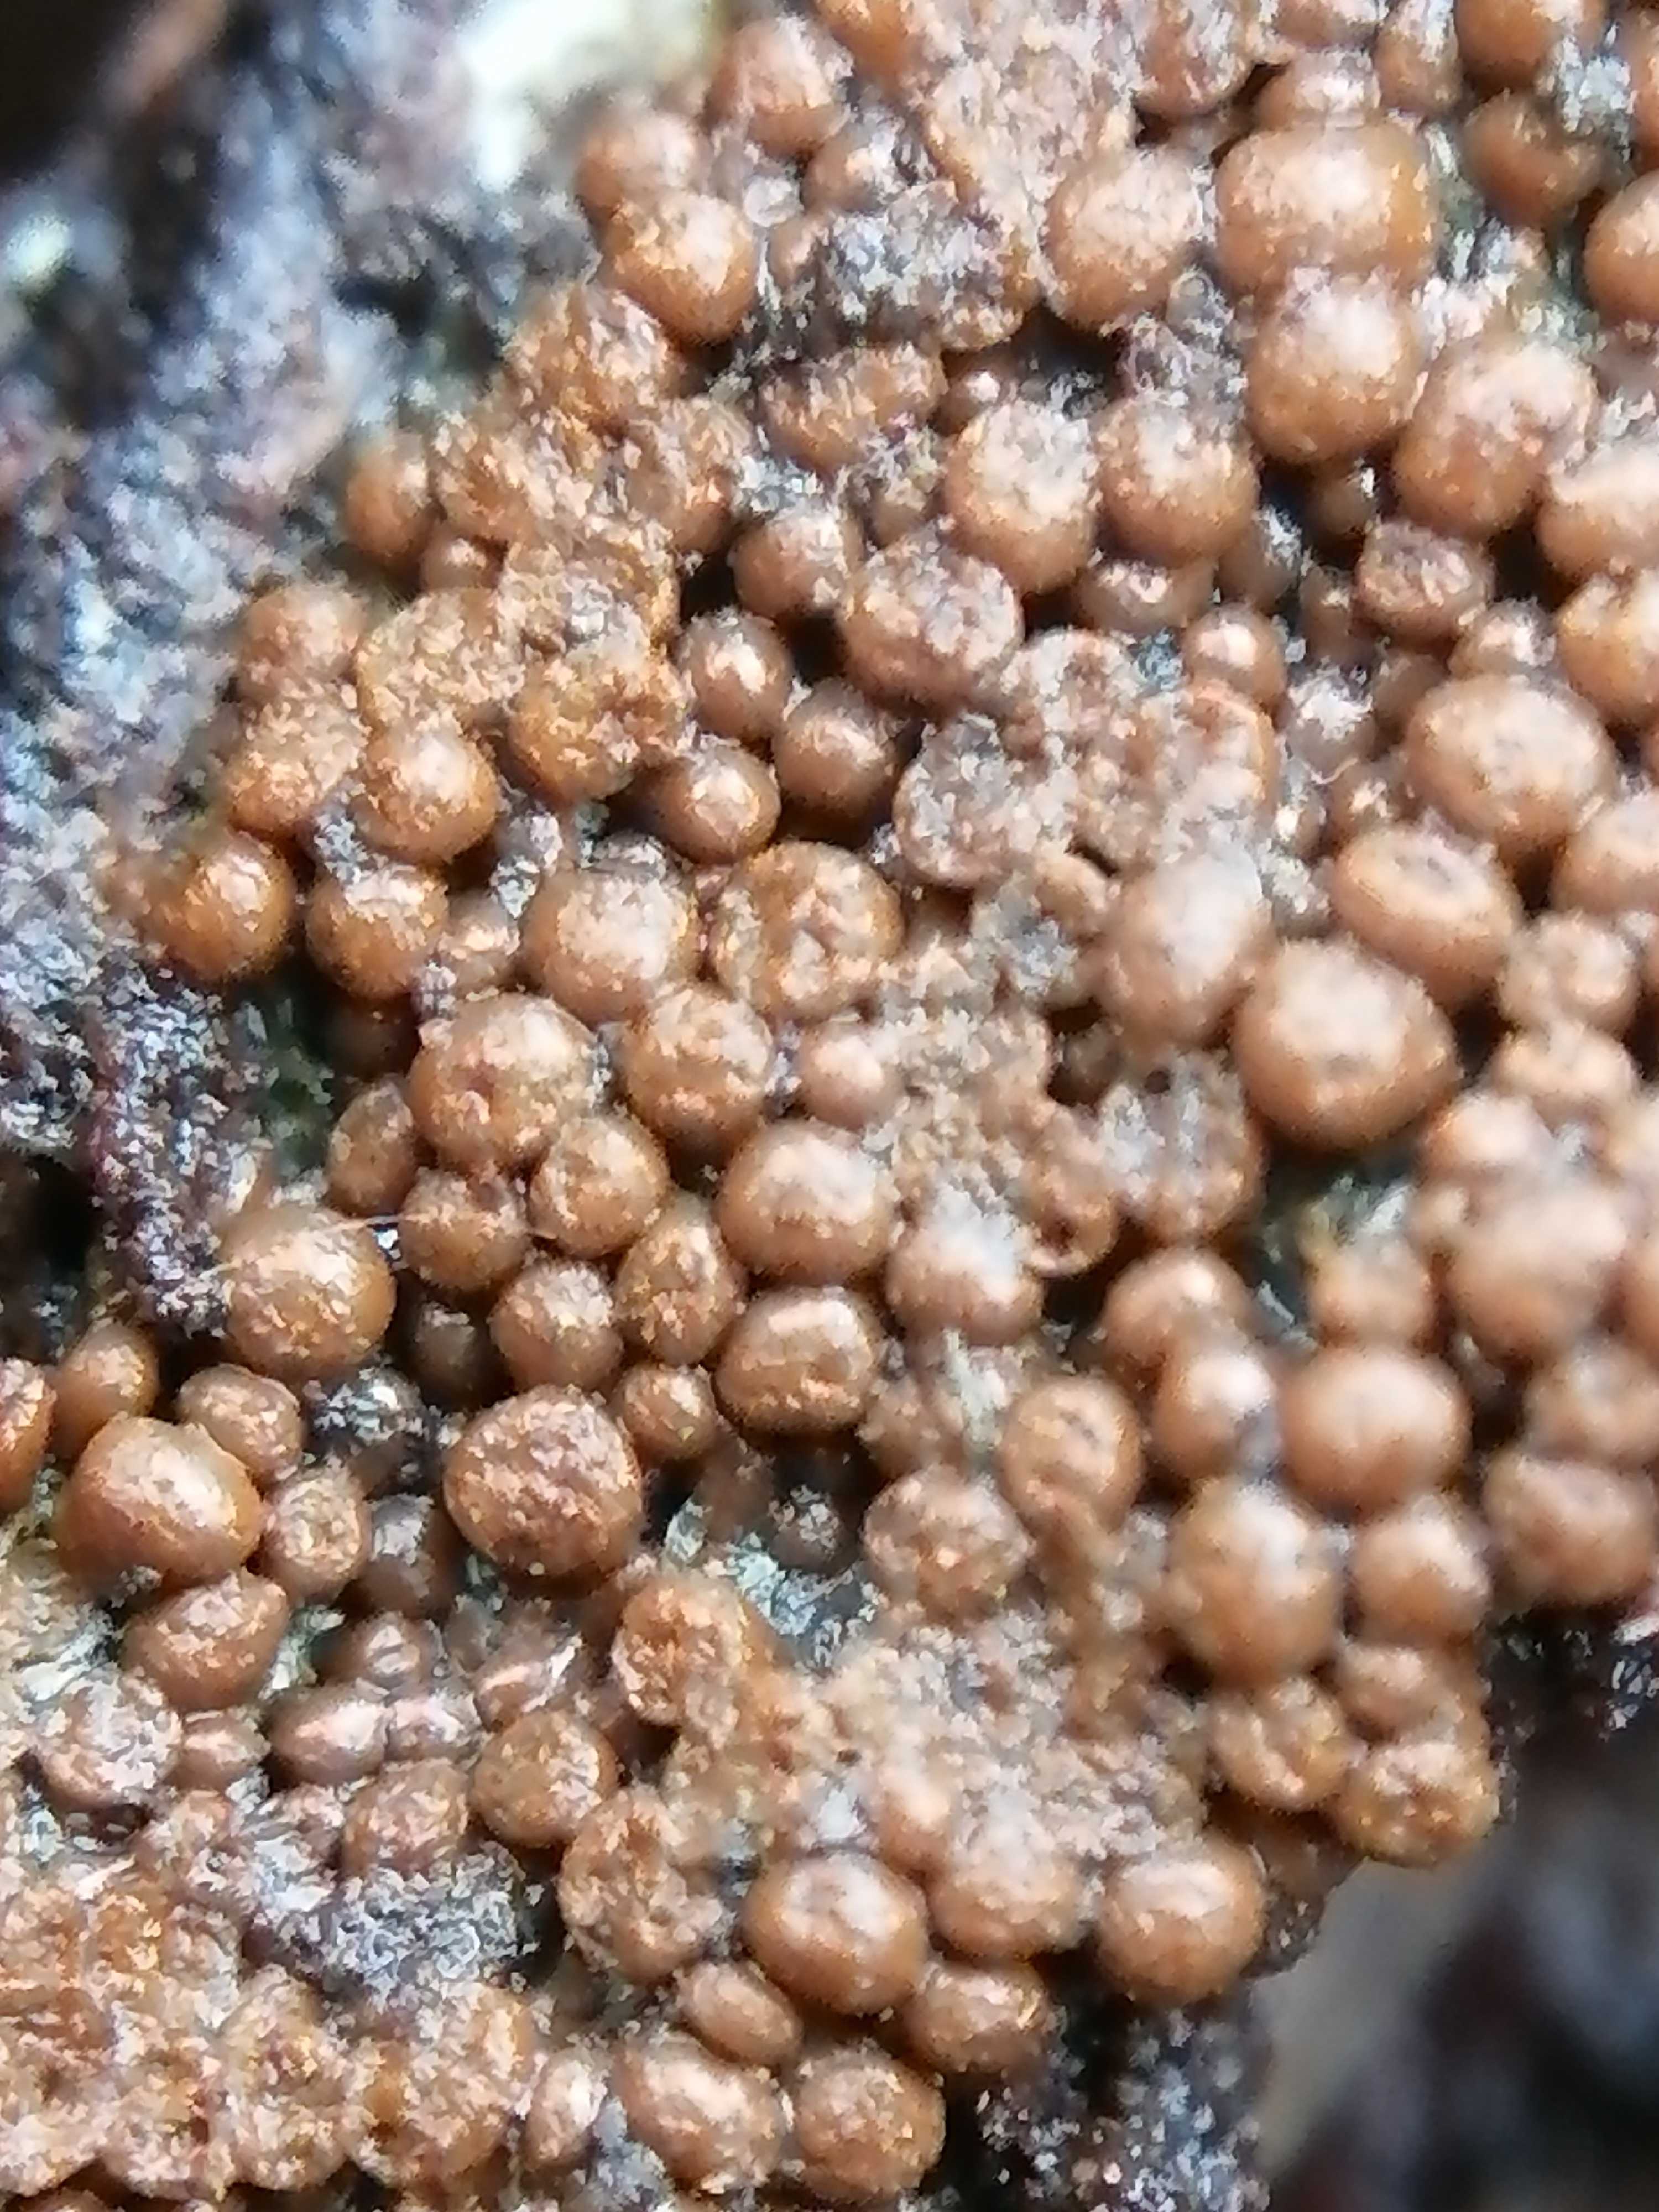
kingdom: Protozoa
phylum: Mycetozoa
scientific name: Mycetozoa
